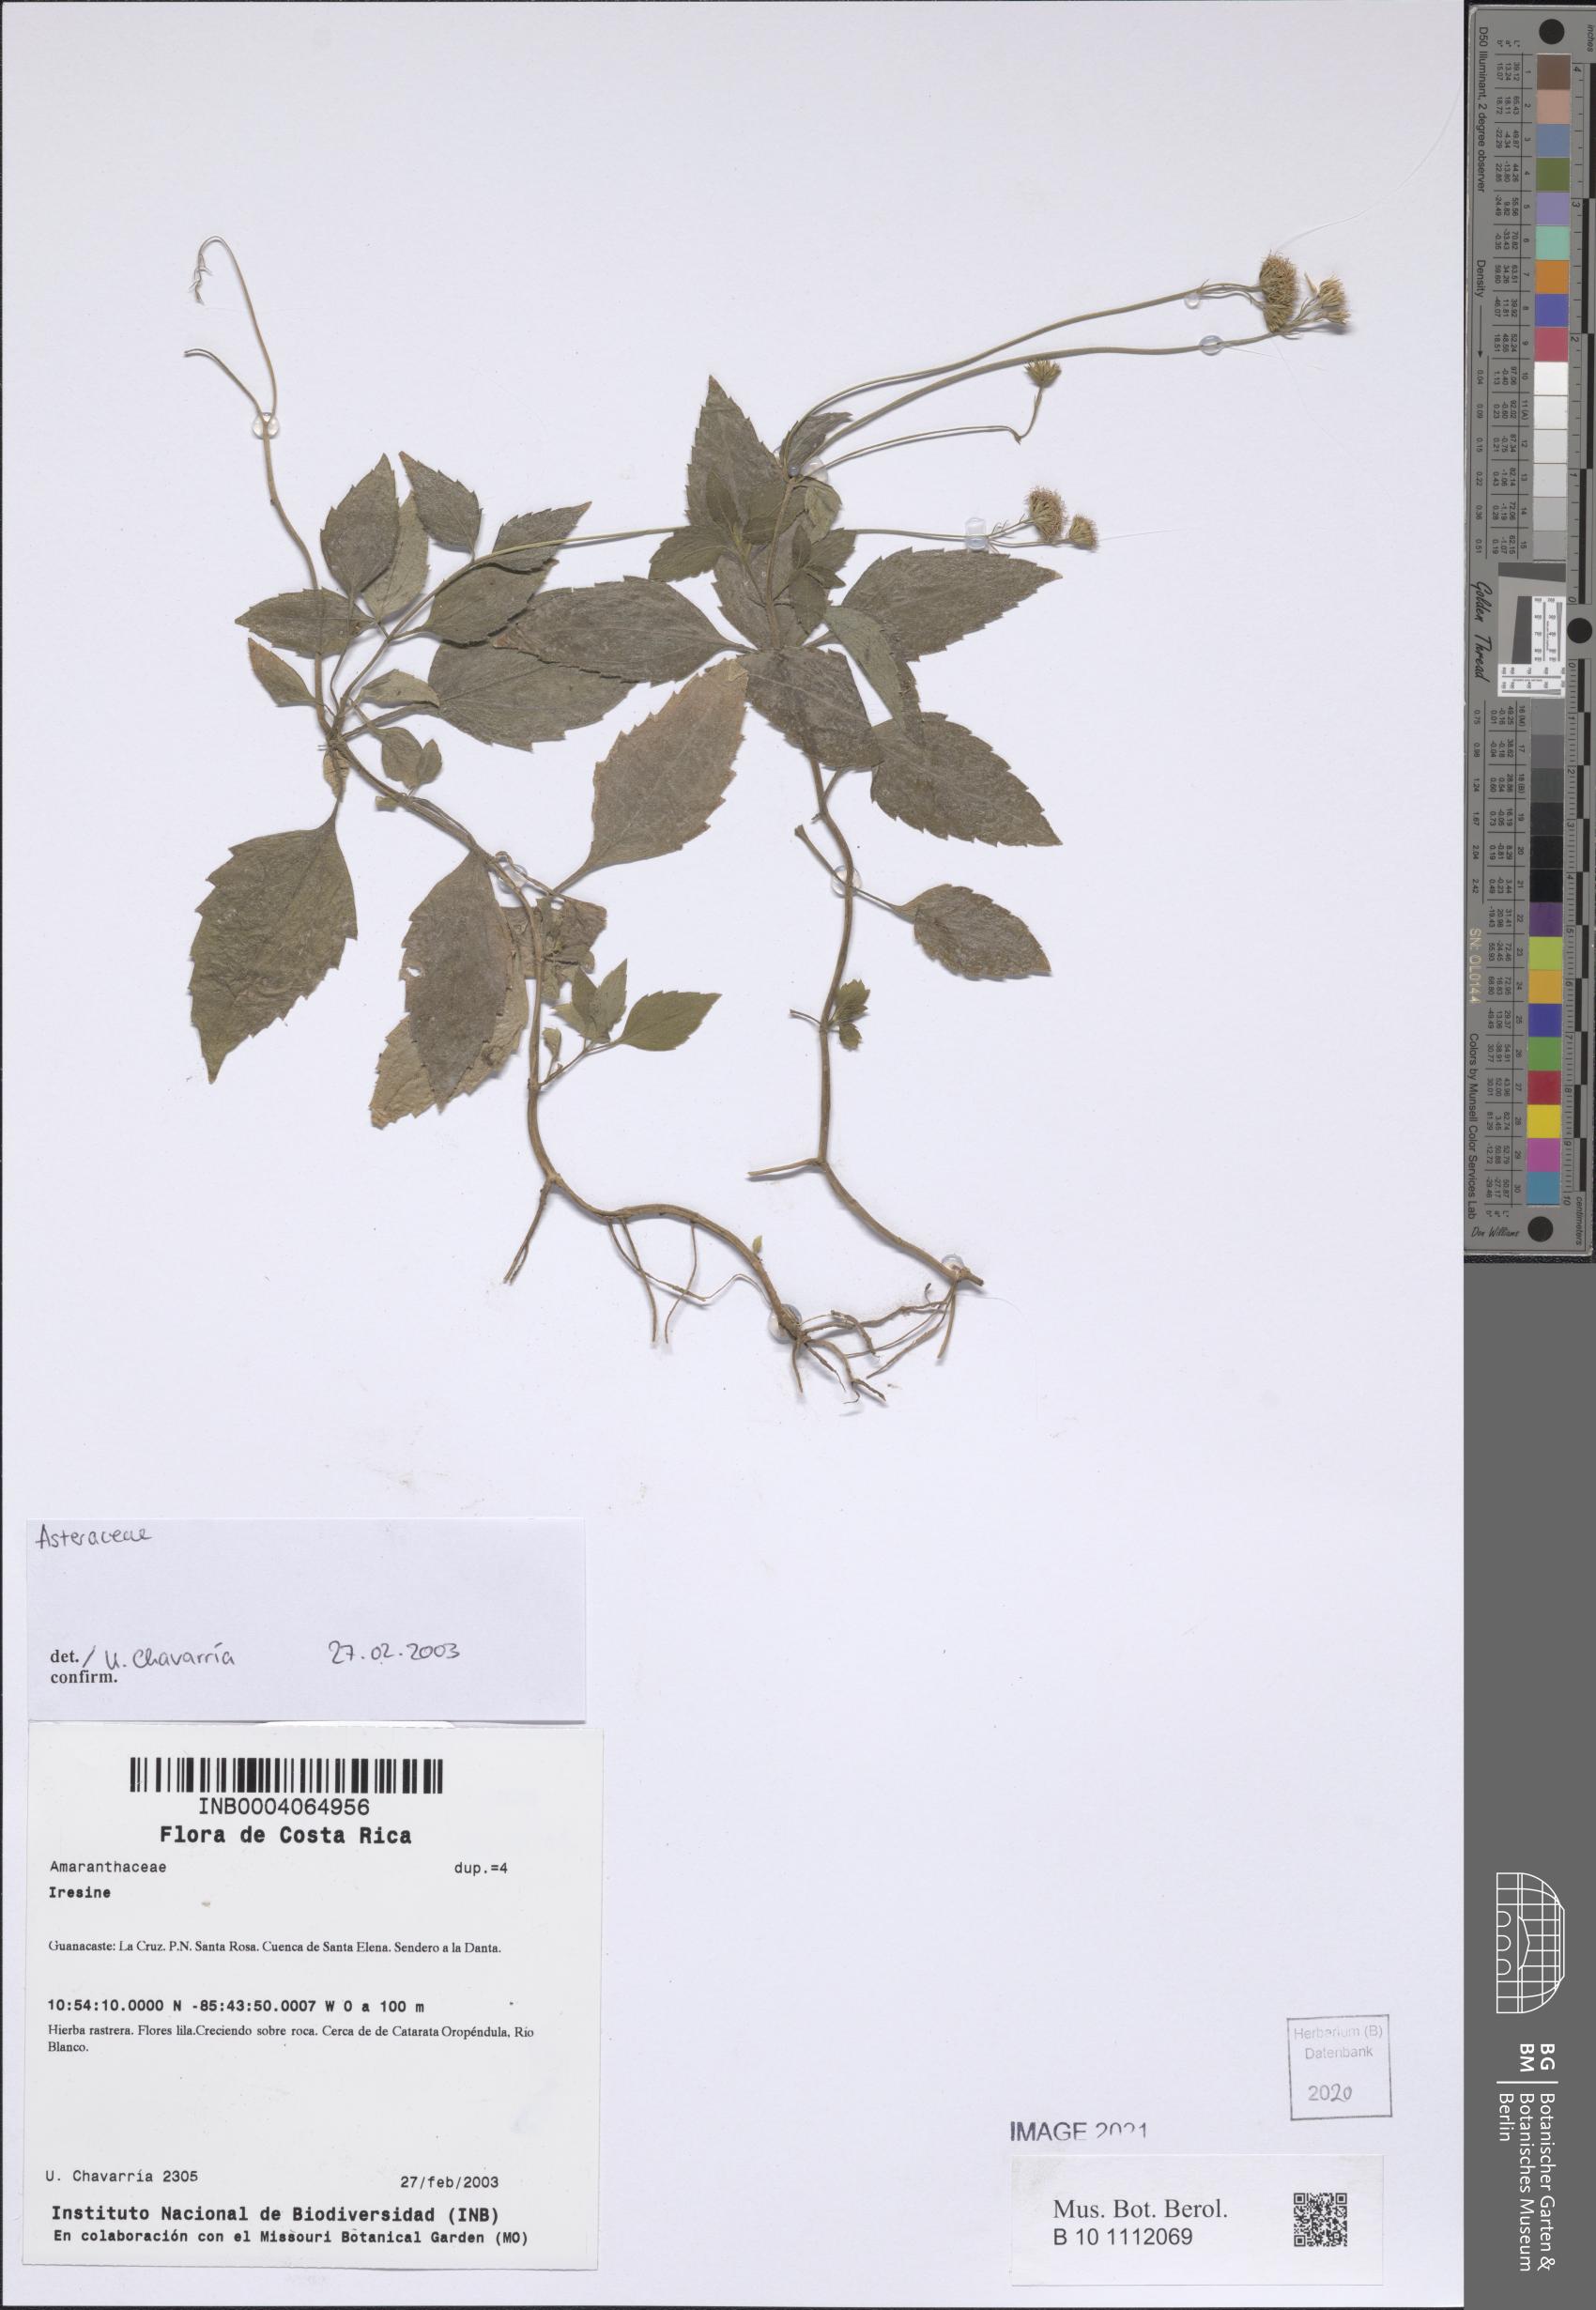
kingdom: Plantae
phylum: Tracheophyta
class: Magnoliopsida
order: Asterales
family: Asteraceae
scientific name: Asteraceae
